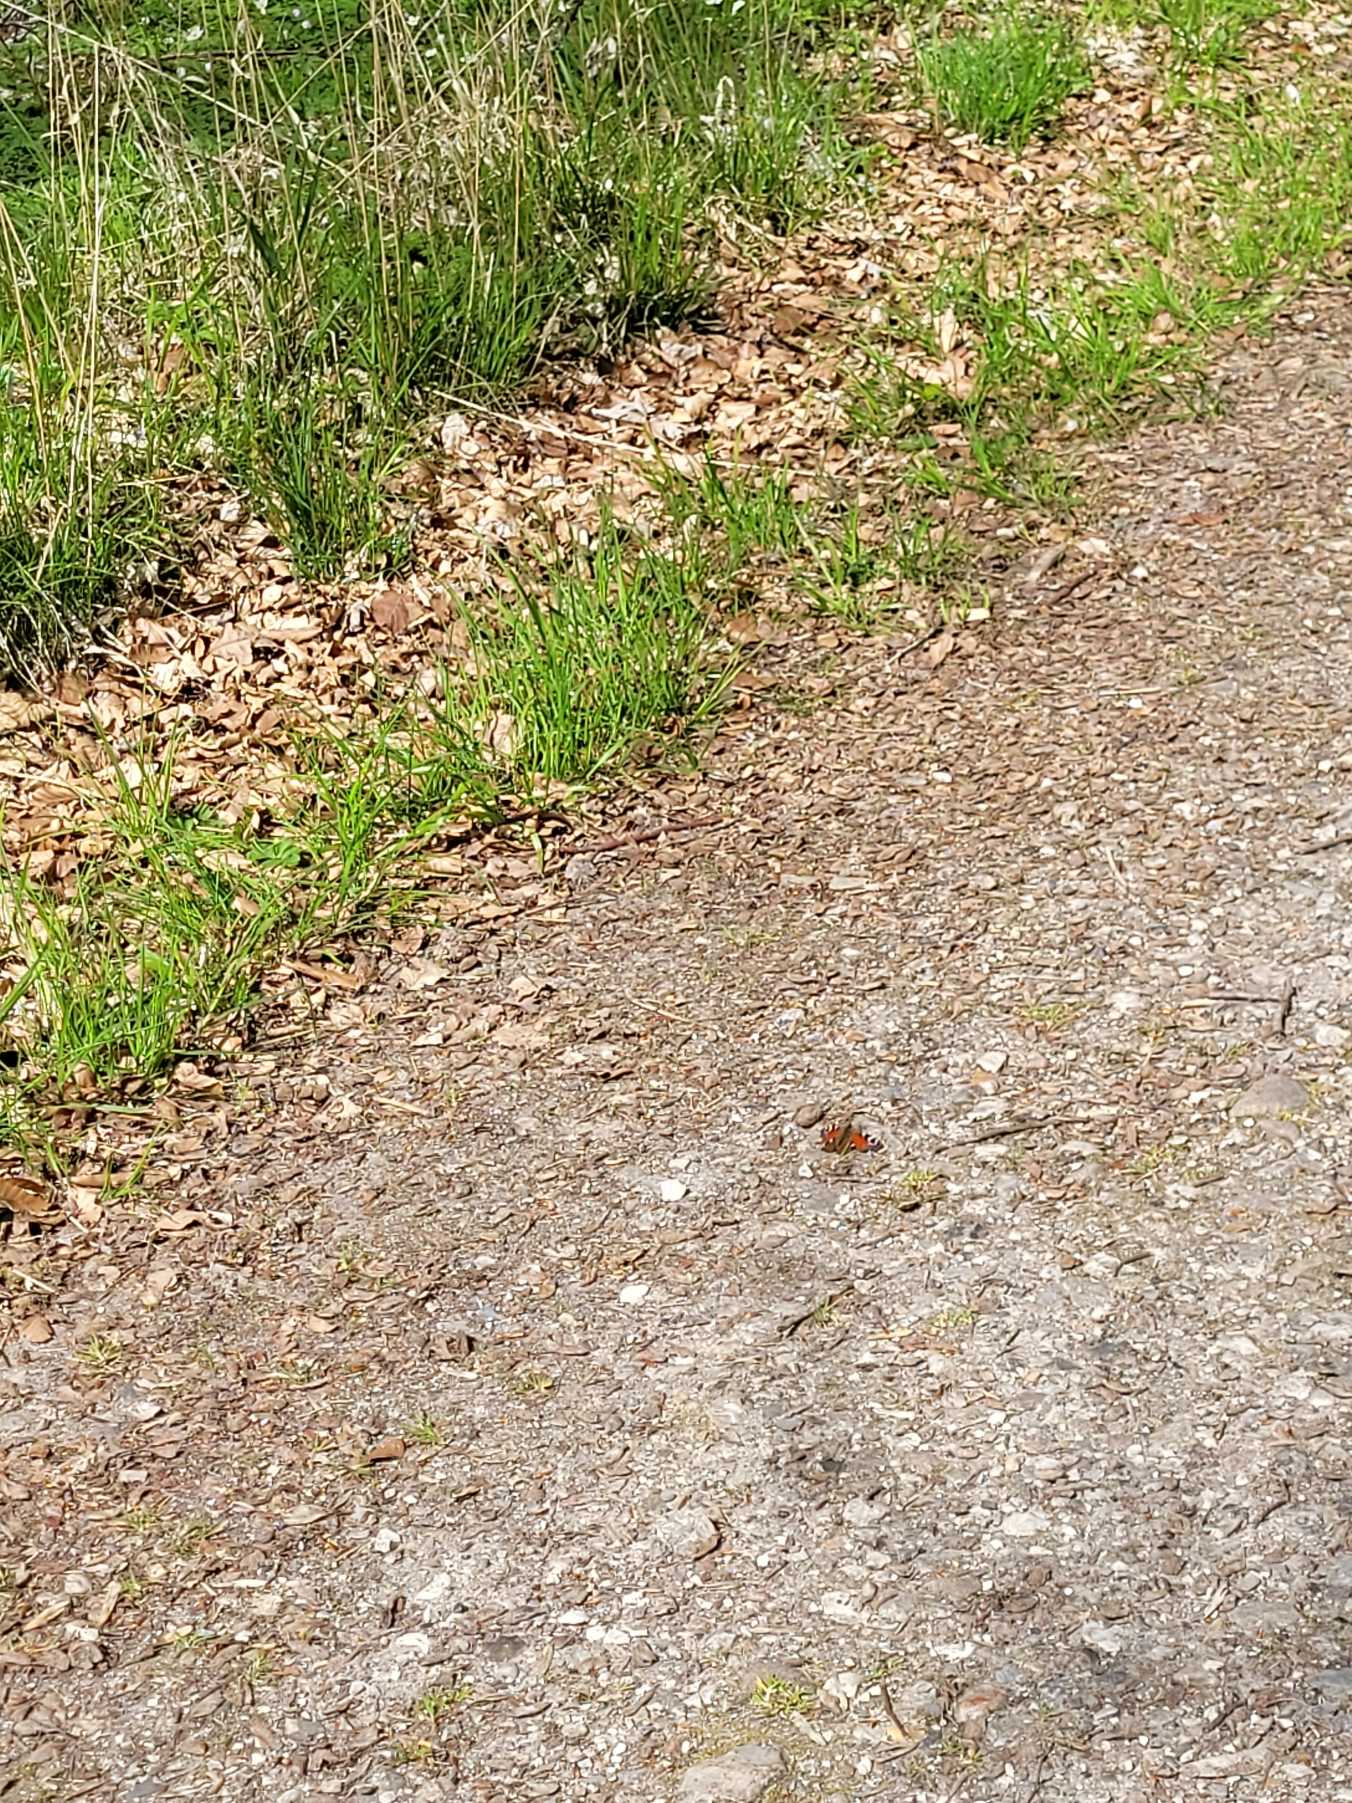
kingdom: Animalia
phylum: Arthropoda
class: Insecta
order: Lepidoptera
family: Nymphalidae
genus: Aglais
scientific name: Aglais io
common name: Dagpåfugleøje
